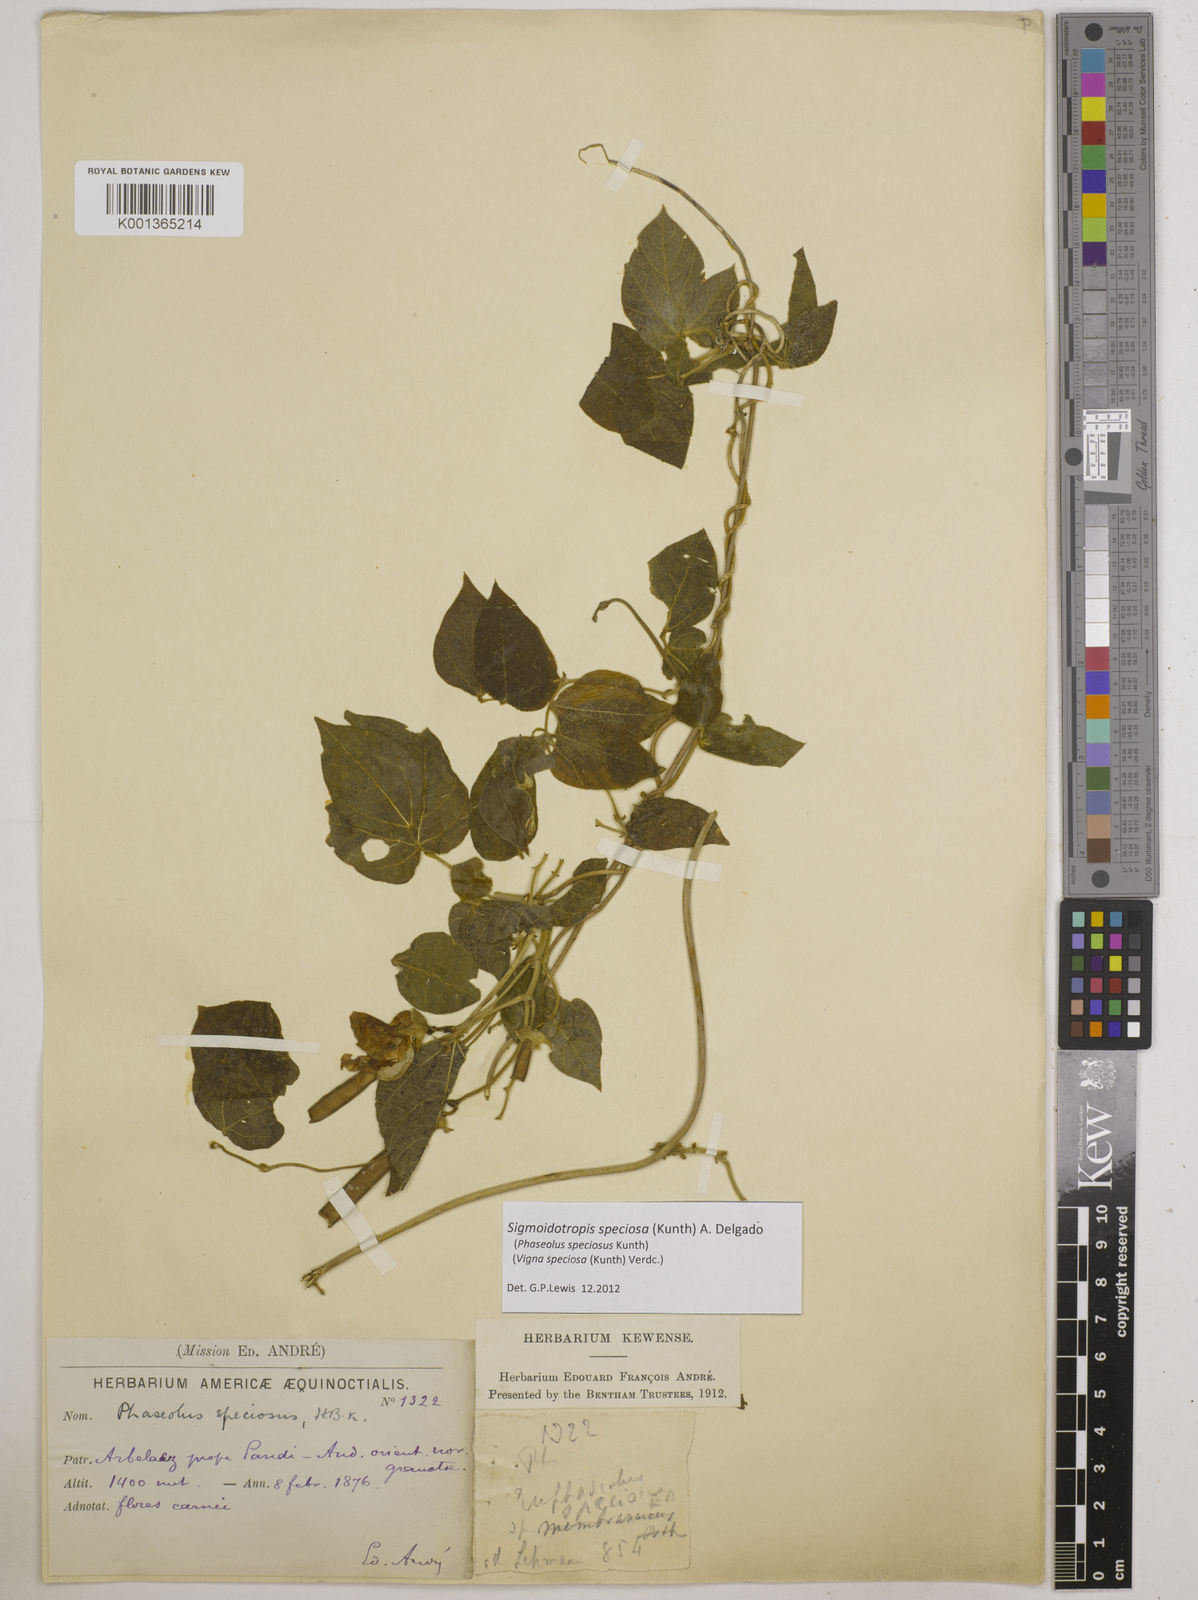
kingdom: Plantae
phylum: Tracheophyta
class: Magnoliopsida
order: Fabales
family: Fabaceae
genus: Sigmoidotropis
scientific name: Sigmoidotropis speciosa
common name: Snail flower
